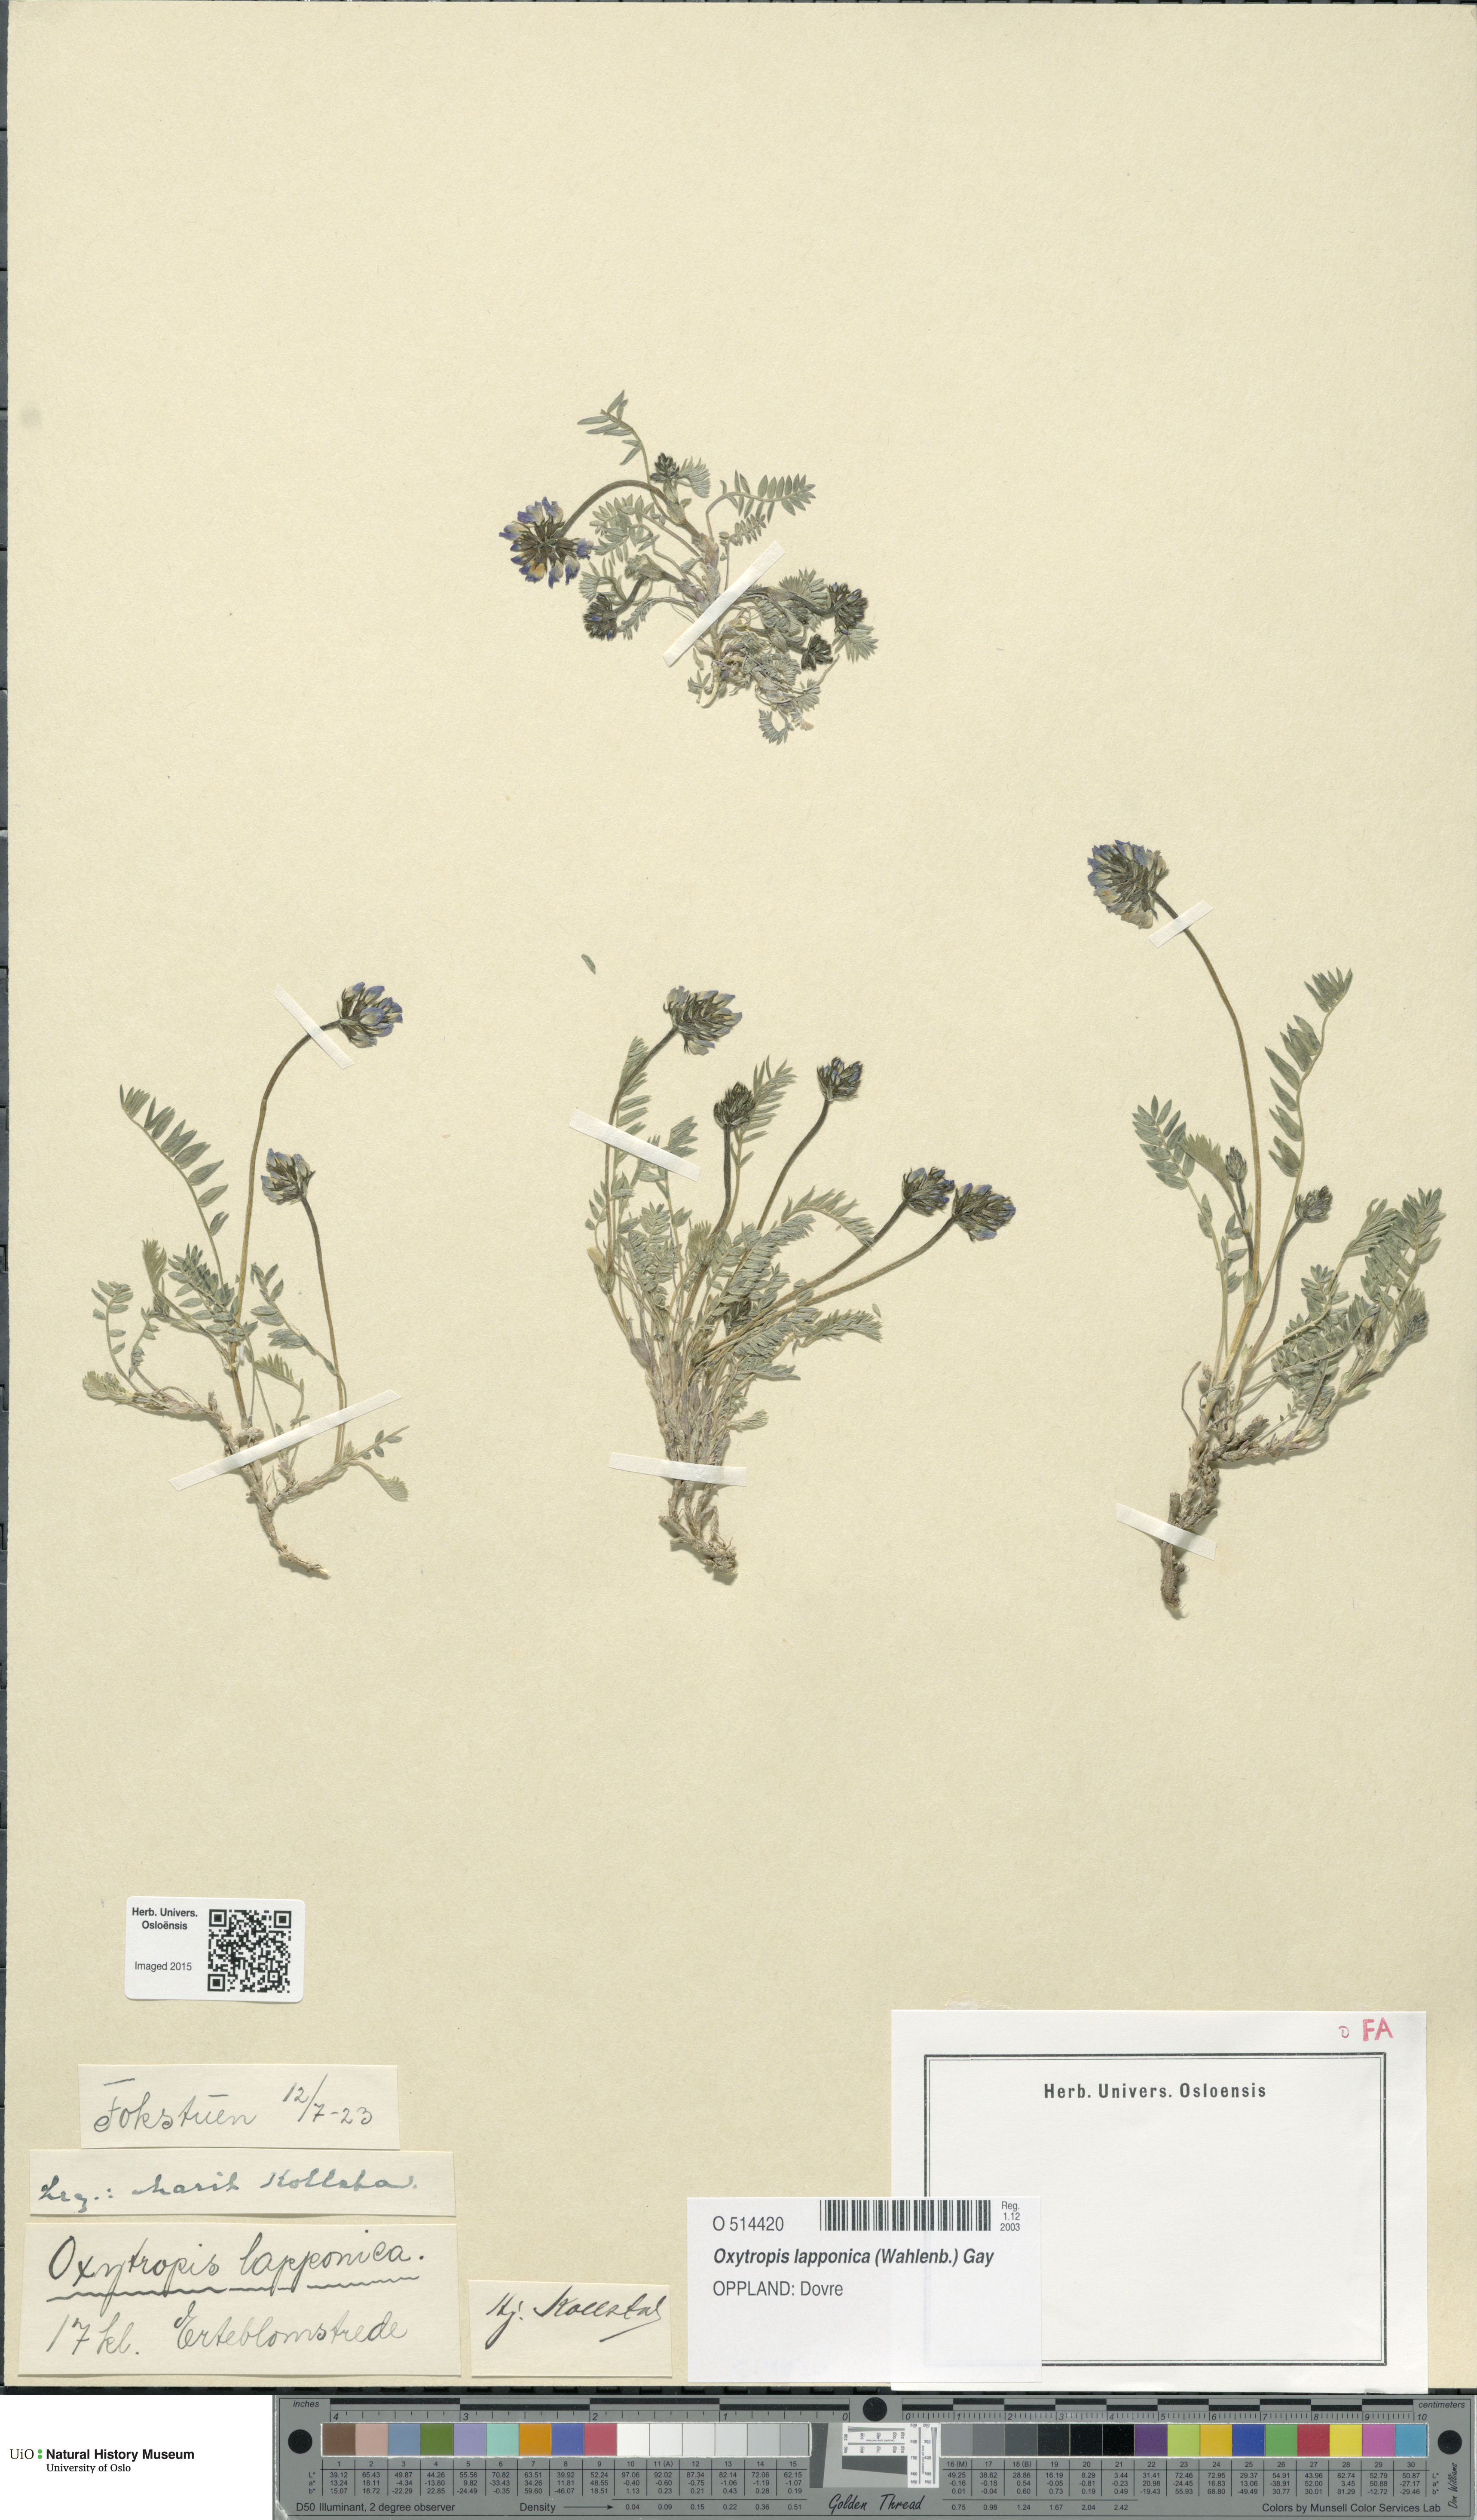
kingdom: Plantae
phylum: Tracheophyta
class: Magnoliopsida
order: Fabales
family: Fabaceae
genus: Oxytropis
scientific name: Oxytropis lapponica
